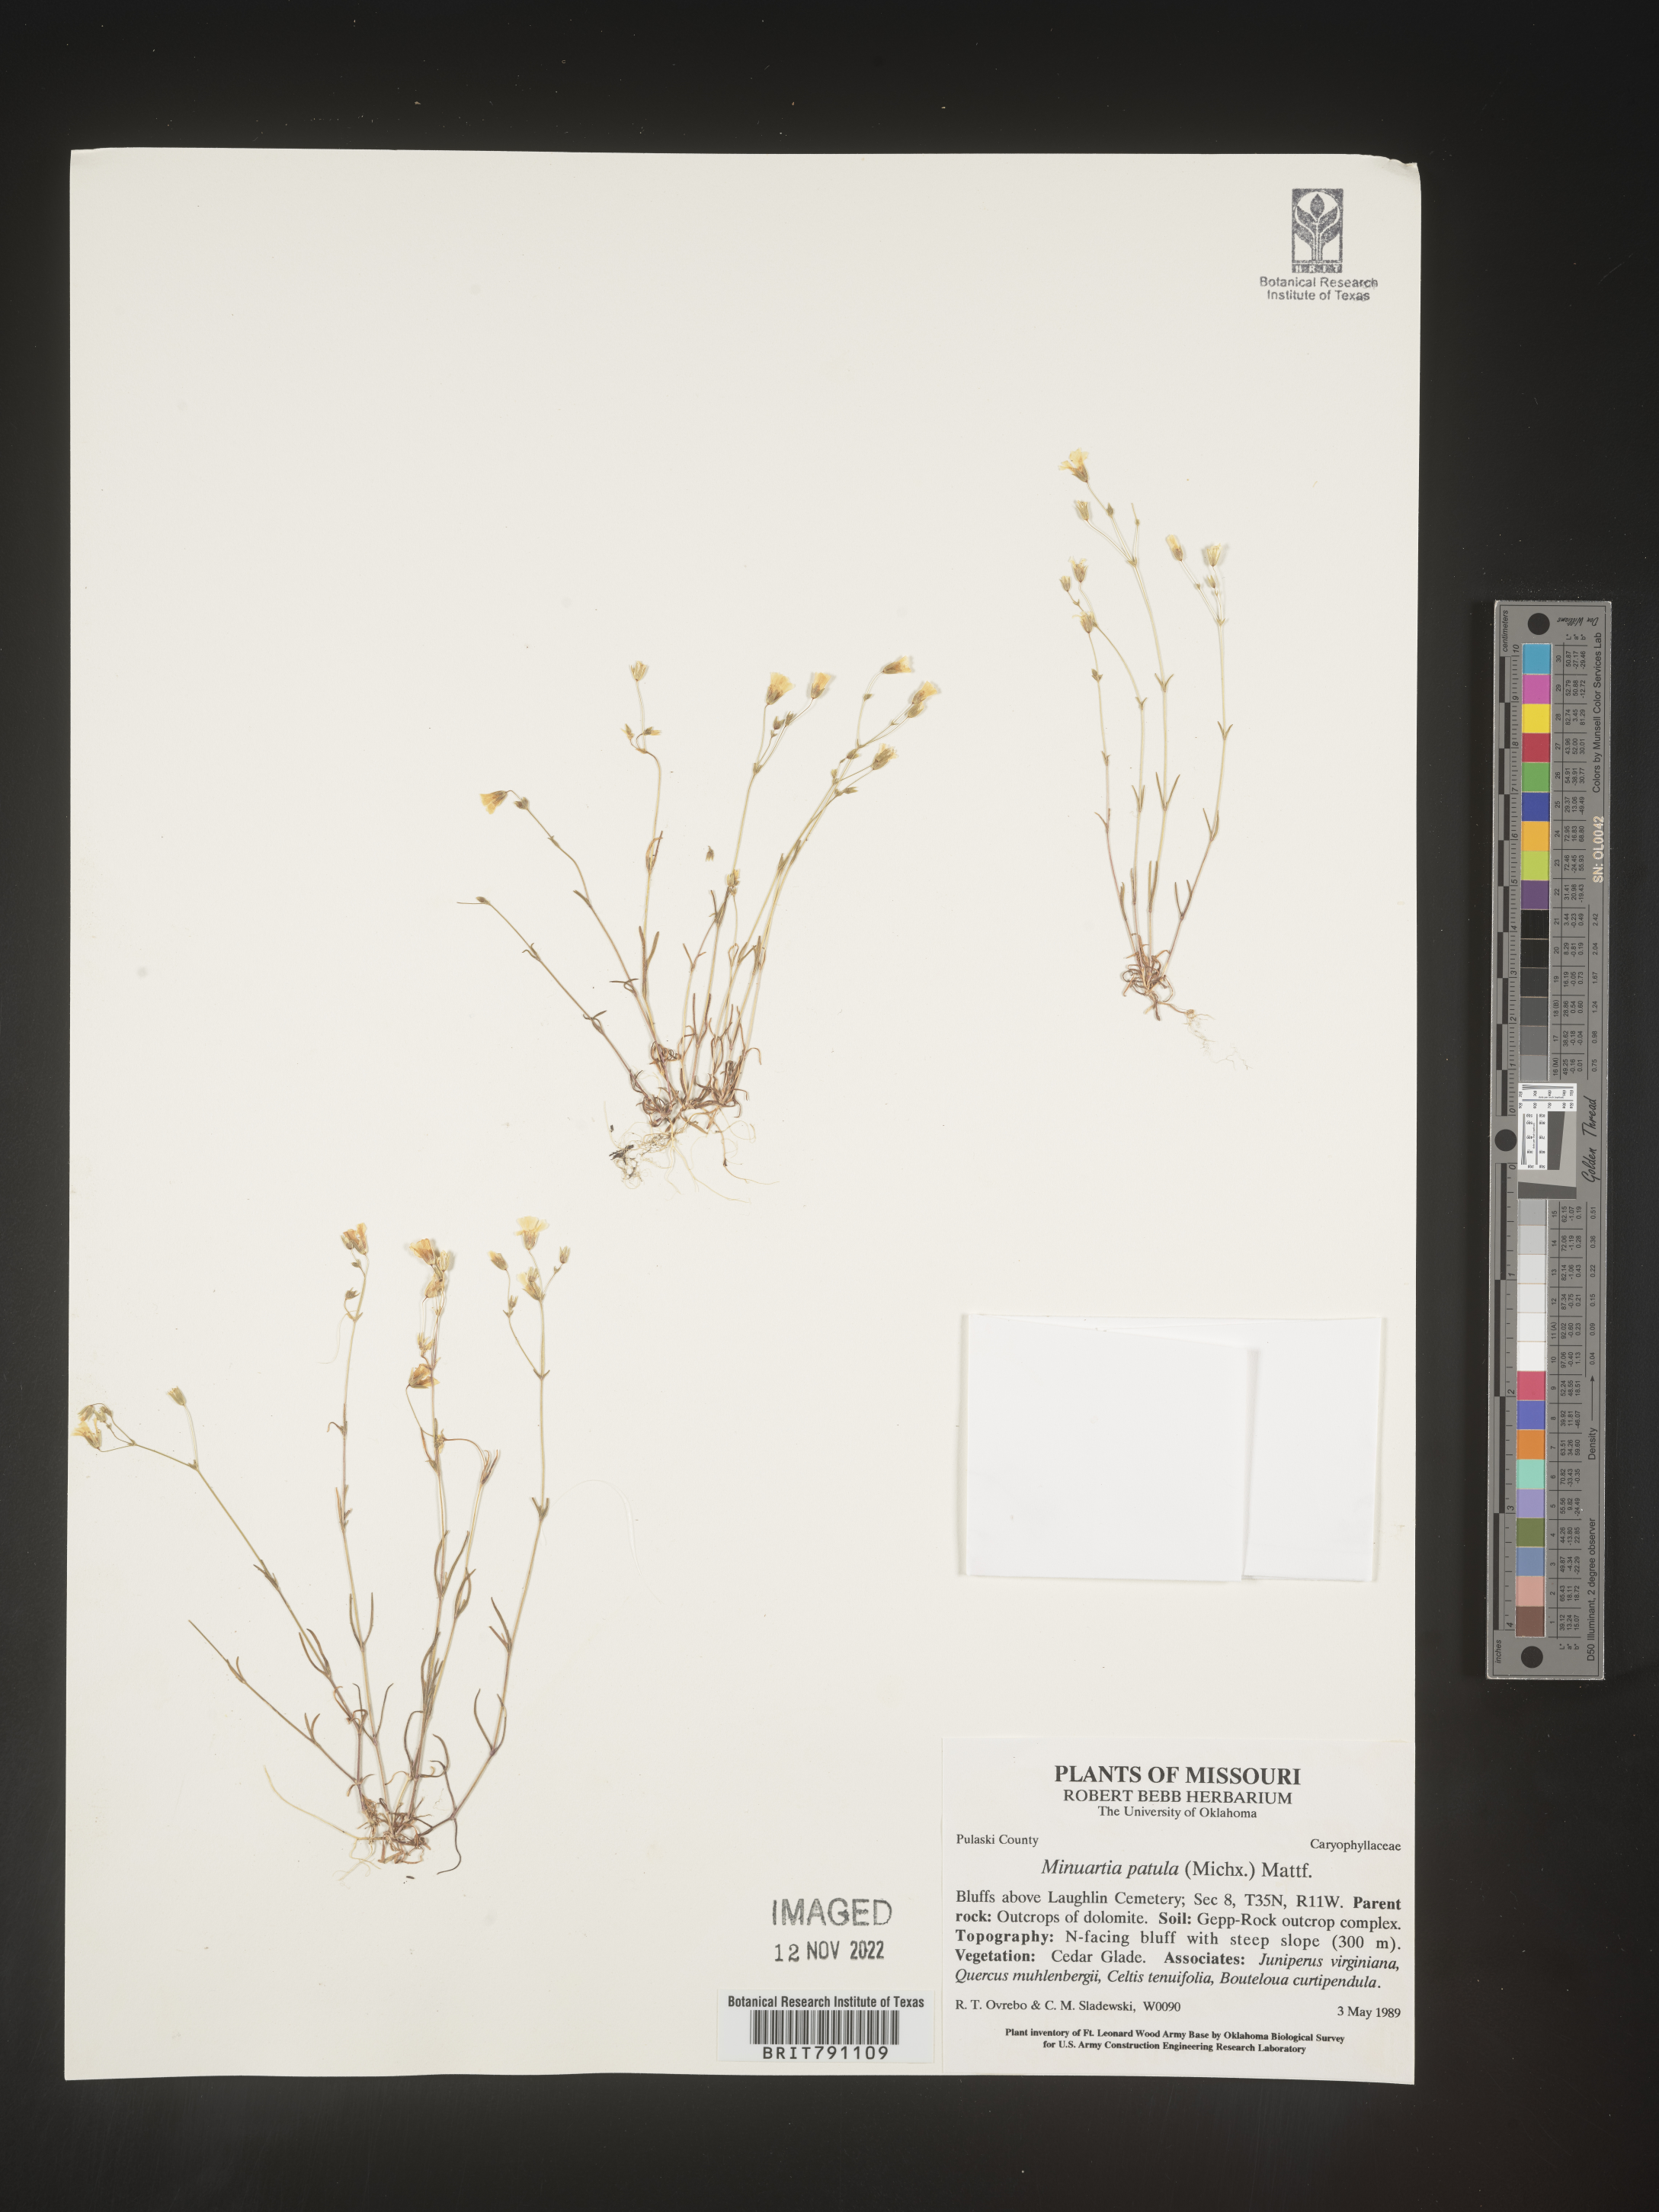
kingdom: Plantae
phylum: Tracheophyta
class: Magnoliopsida
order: Caryophyllales
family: Caryophyllaceae
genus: Mononeuria
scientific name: Mononeuria patula
